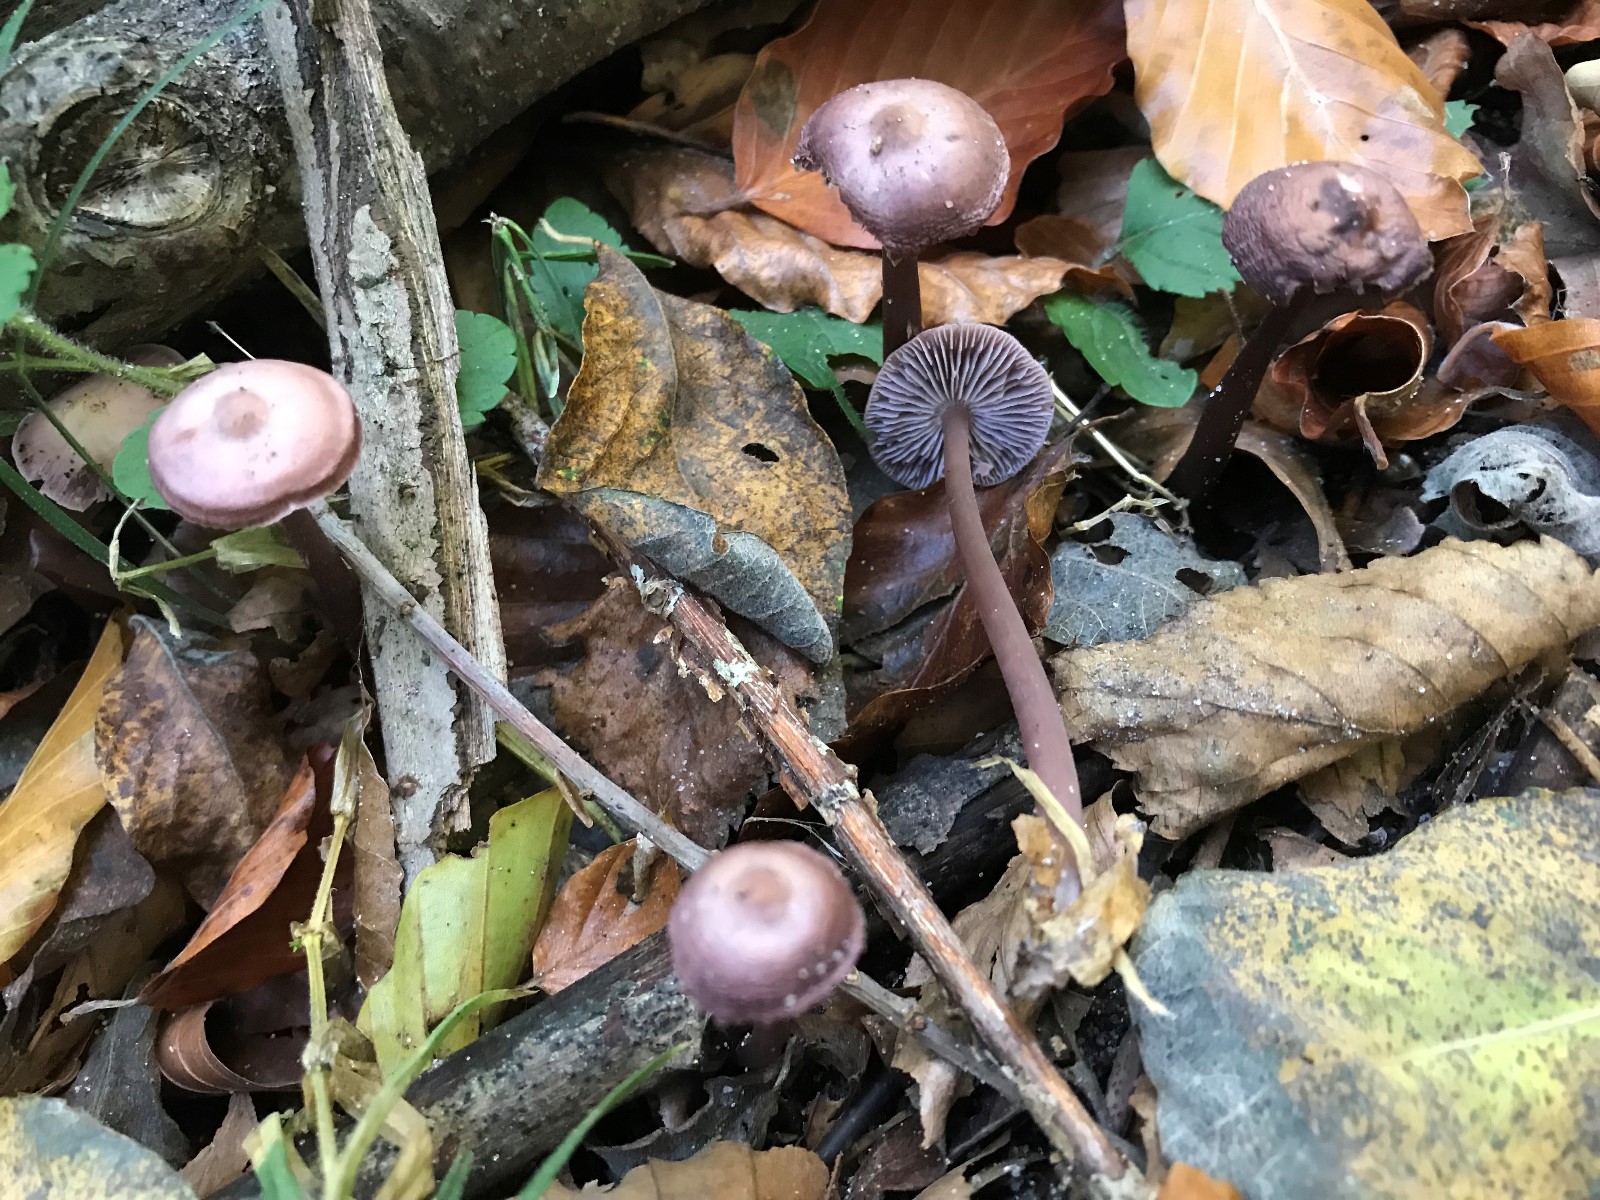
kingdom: Fungi
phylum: Basidiomycota
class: Agaricomycetes
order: Agaricales
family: Mycenaceae
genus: Prunulus
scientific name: Prunulus diosmus
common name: tobaks-huesvamp
